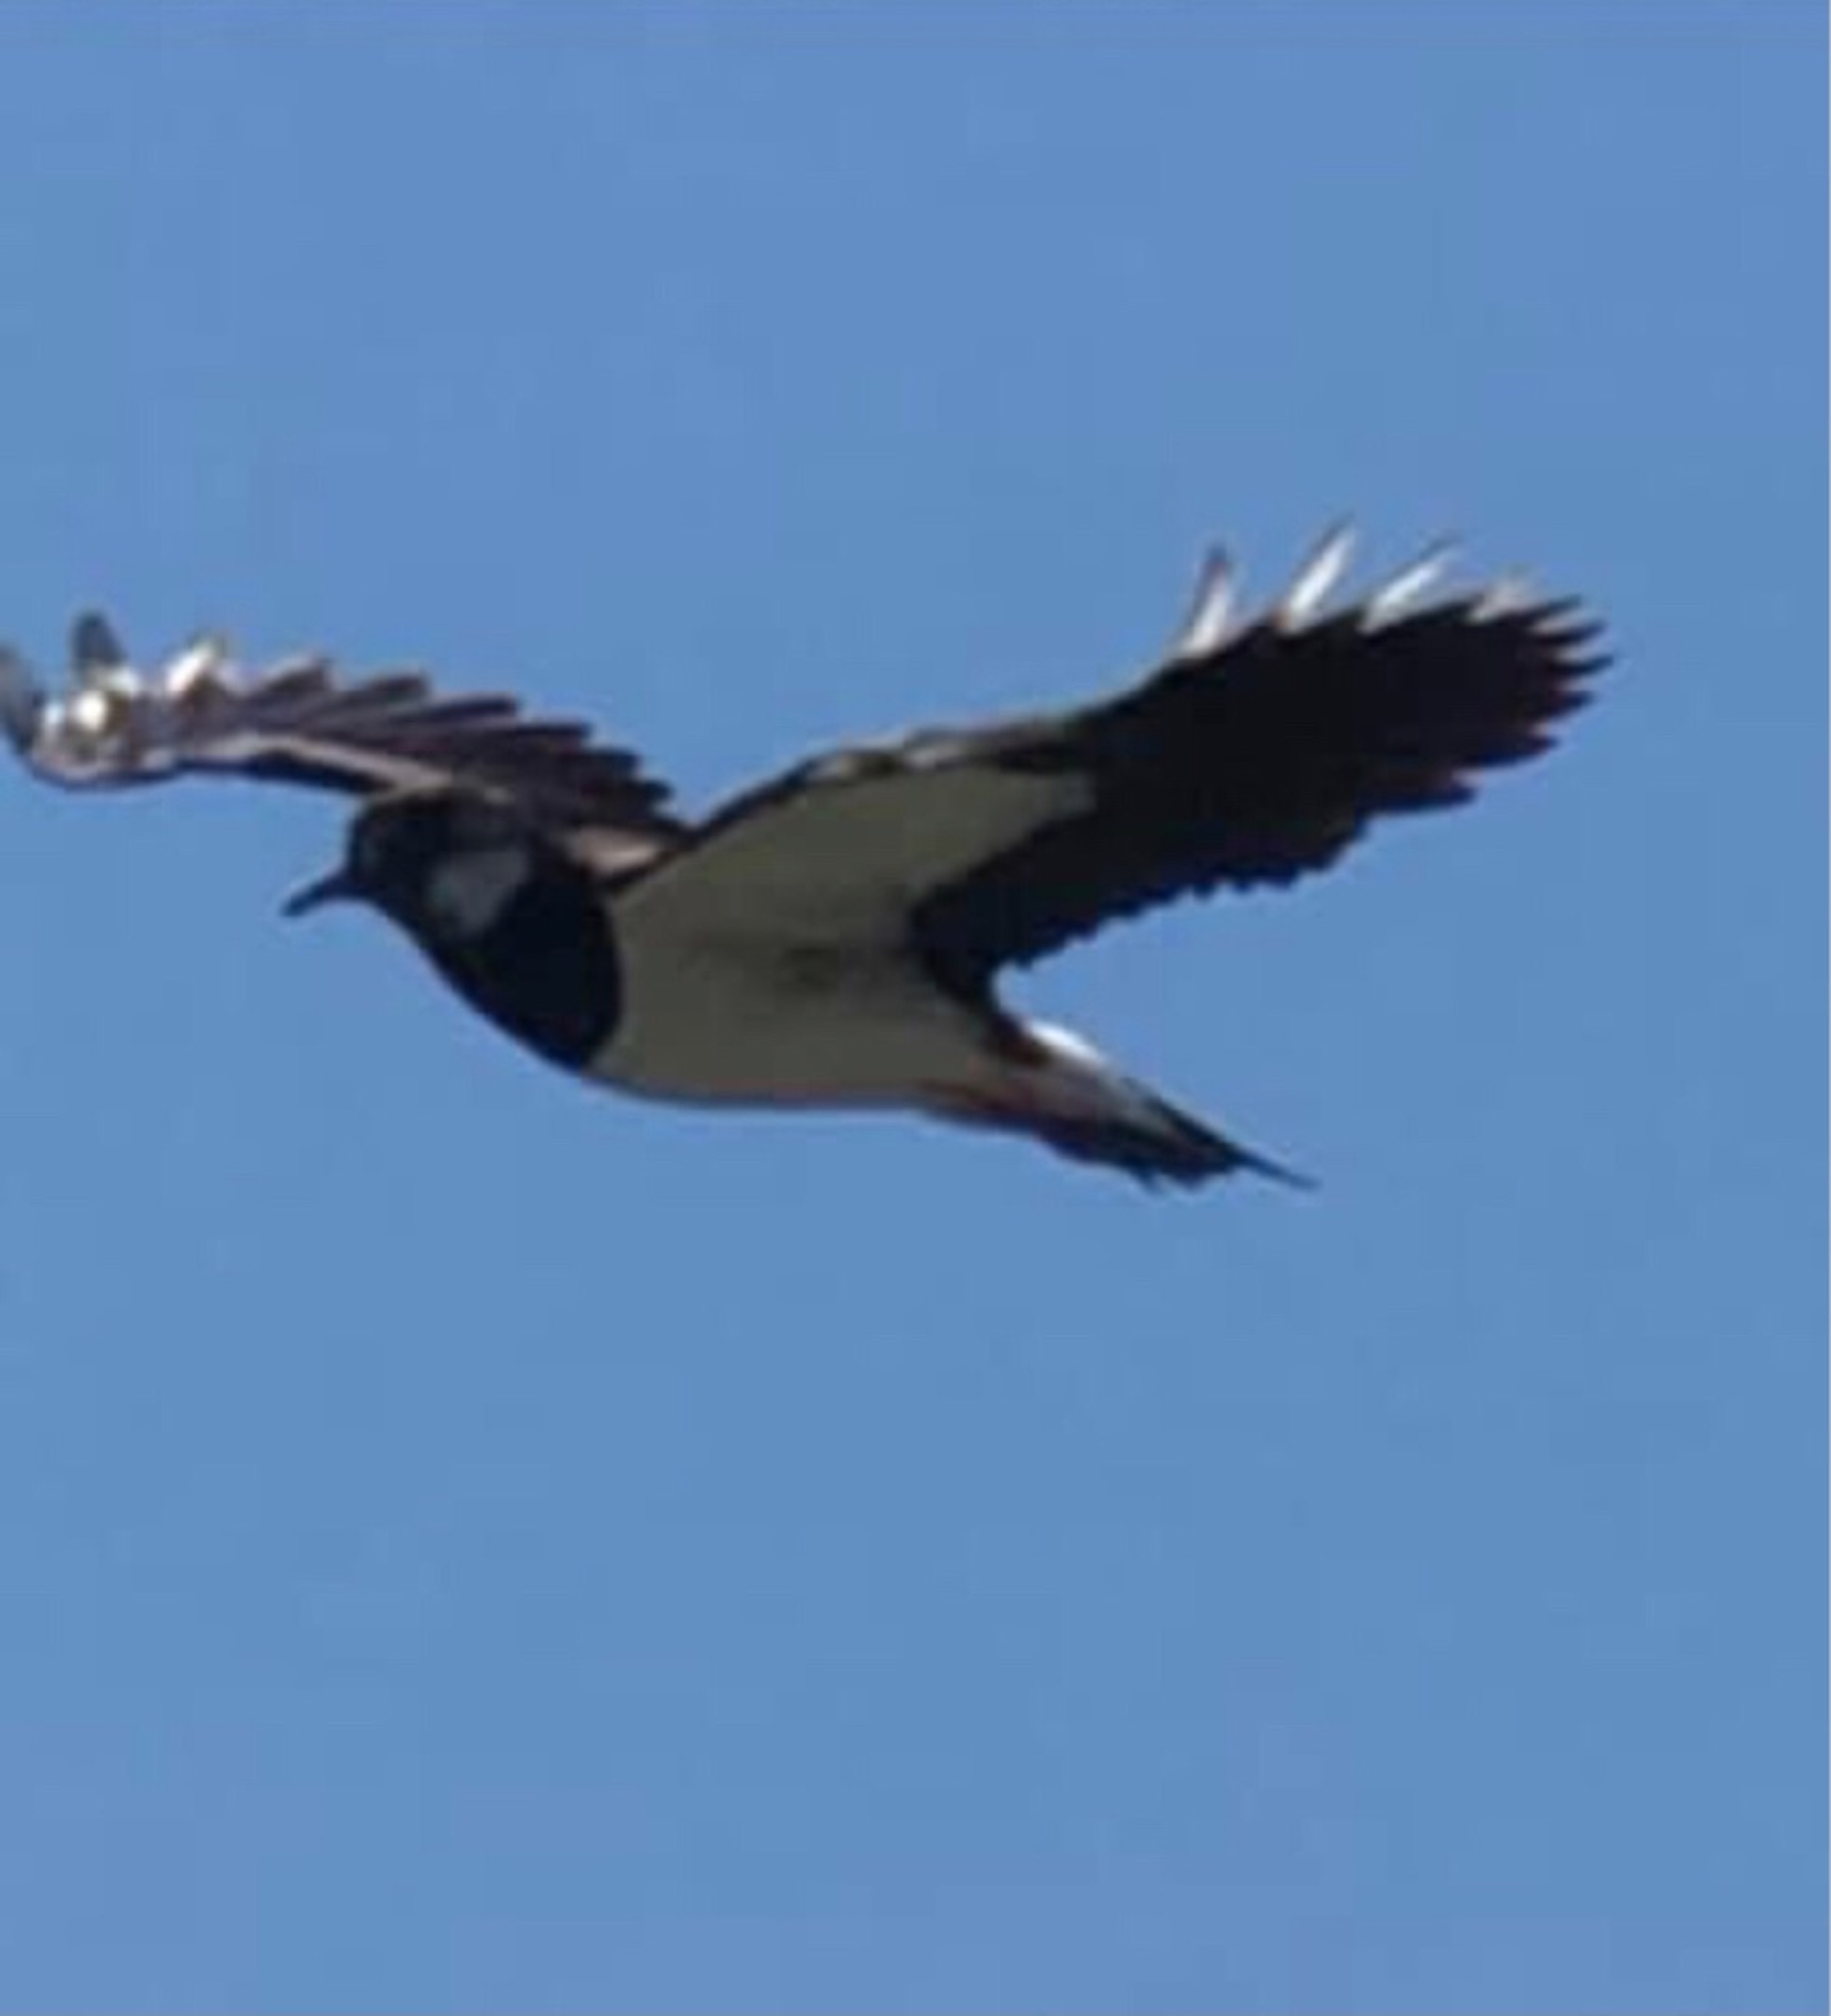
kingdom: Animalia
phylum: Chordata
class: Aves
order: Charadriiformes
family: Charadriidae
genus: Vanellus
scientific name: Vanellus vanellus
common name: Vibe
